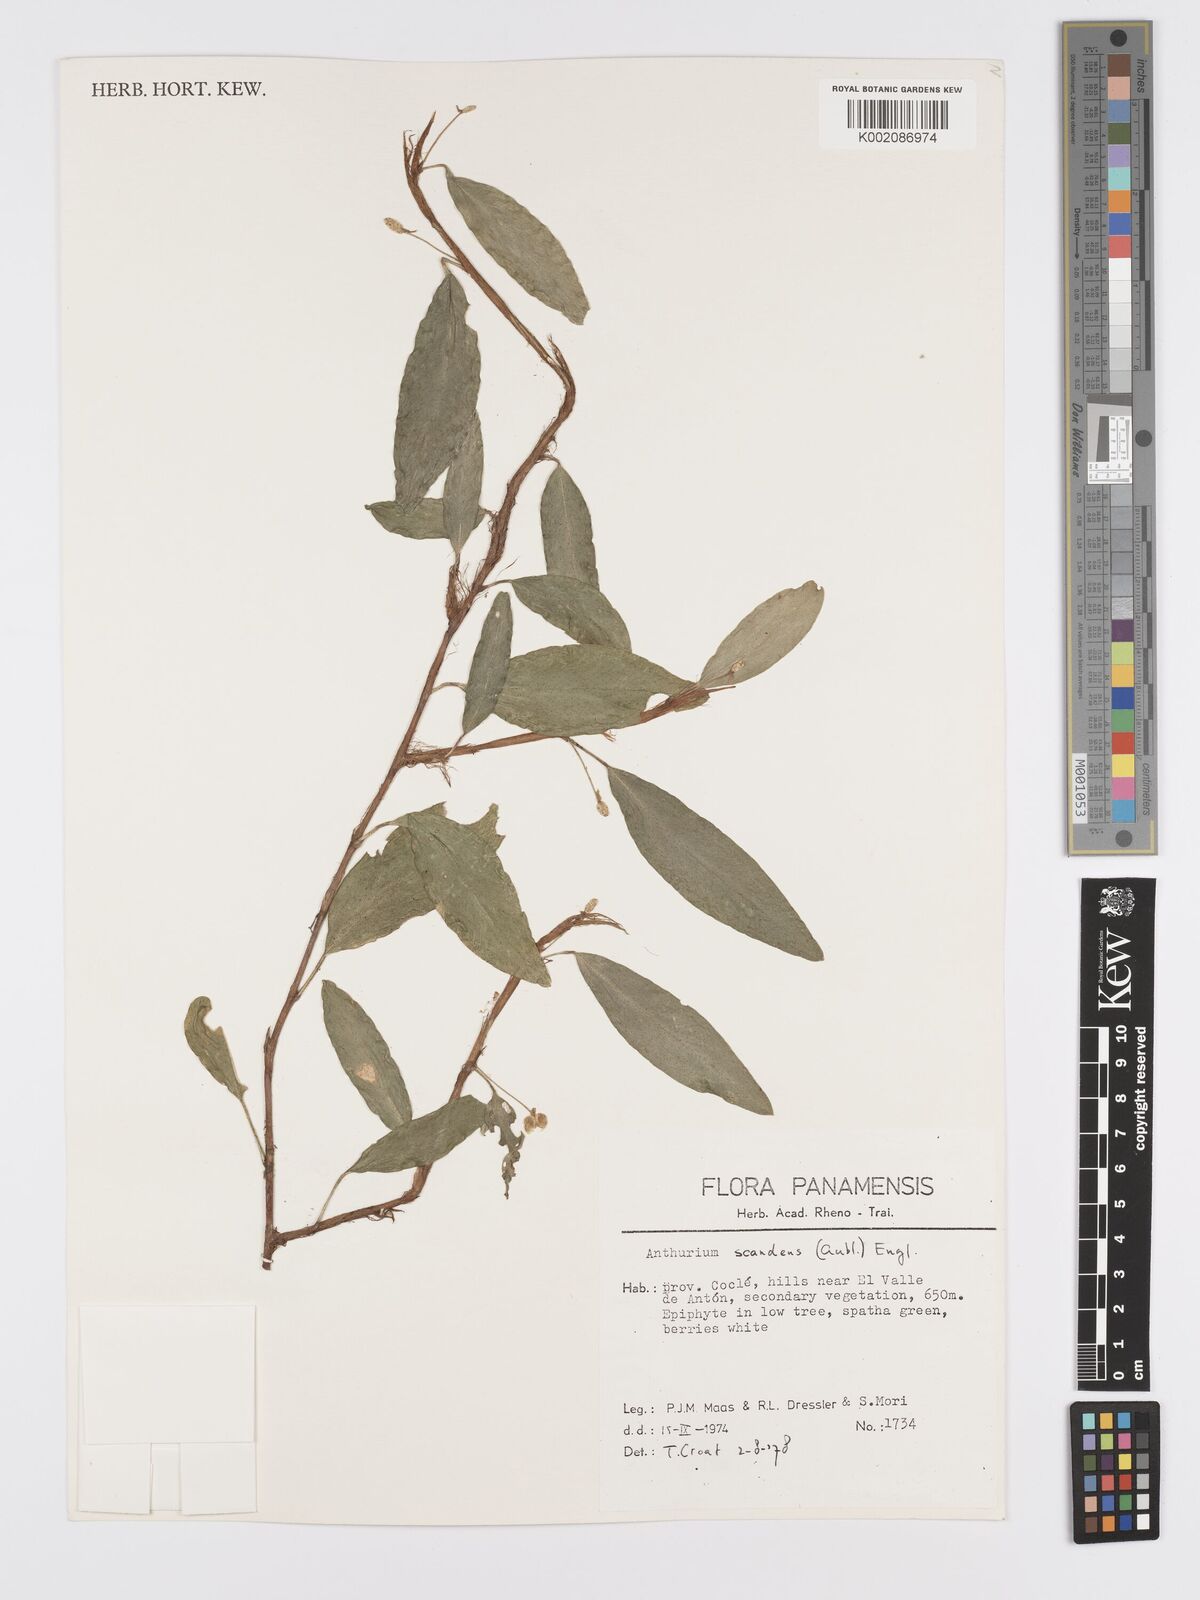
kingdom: Plantae
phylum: Tracheophyta
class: Liliopsida
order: Alismatales
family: Araceae
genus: Anthurium
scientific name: Anthurium scandens
